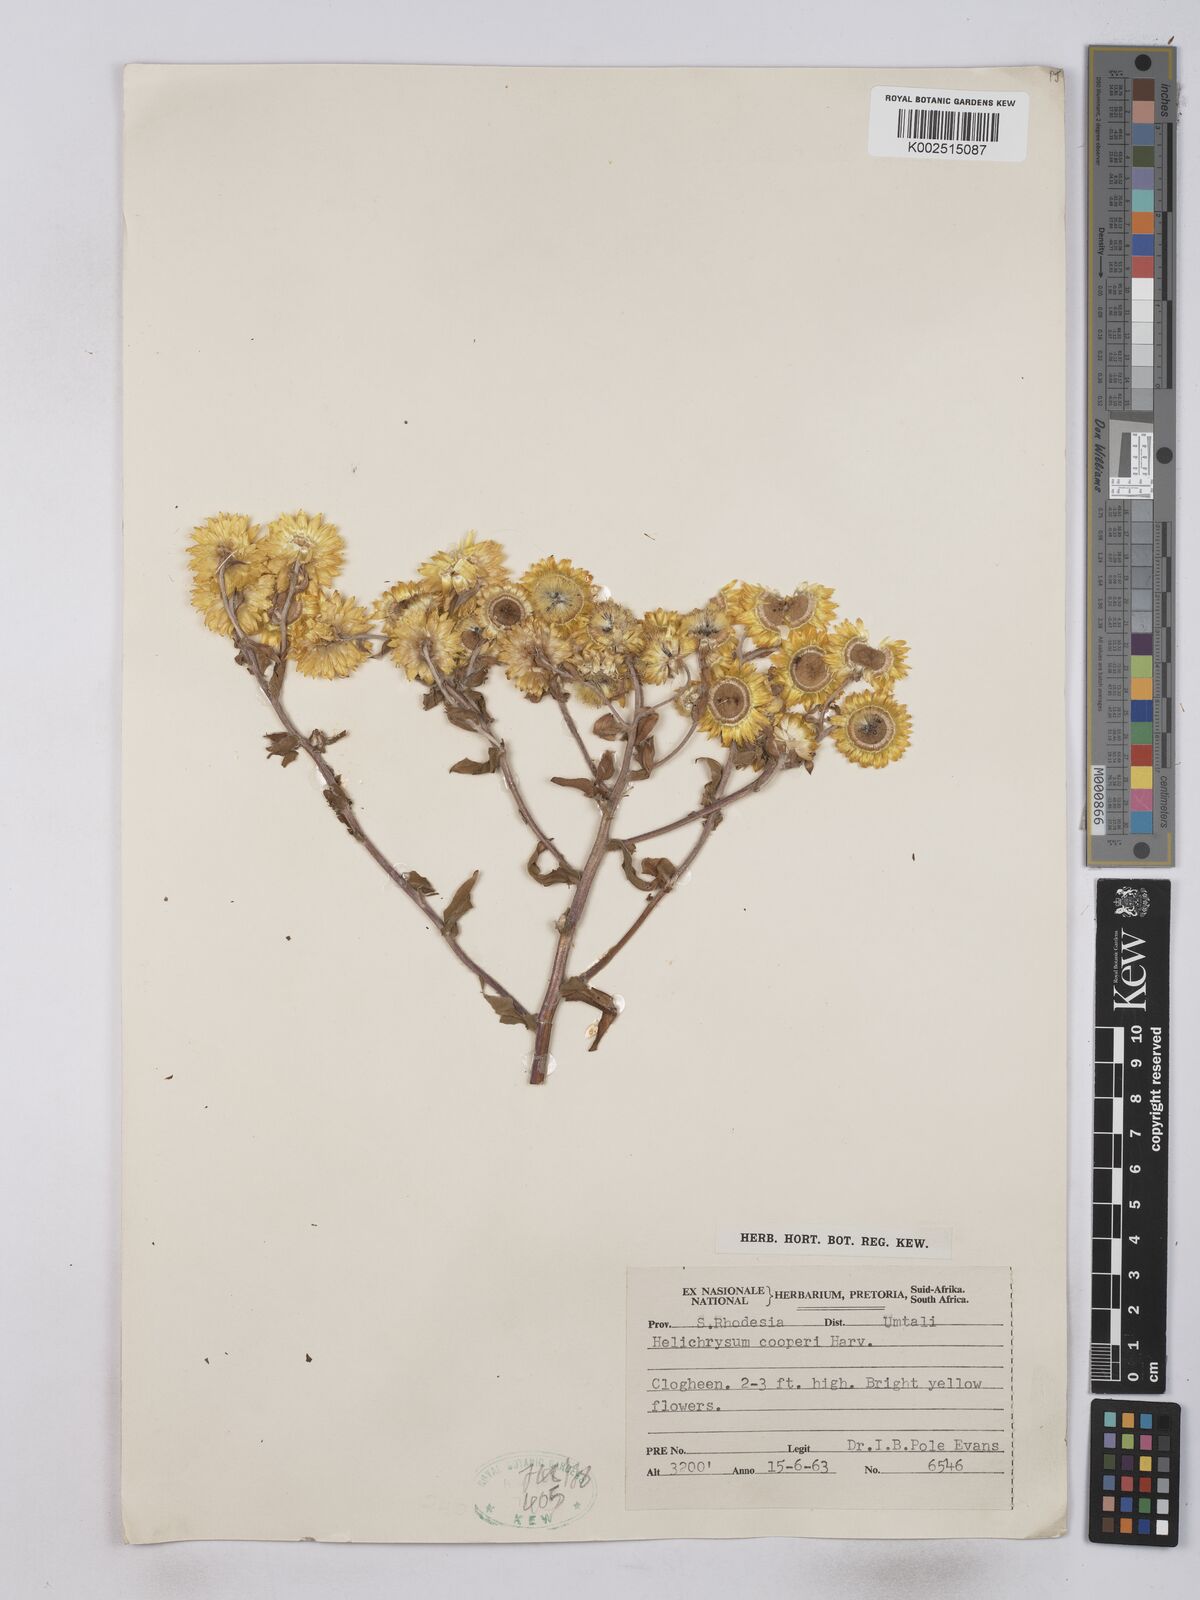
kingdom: Plantae
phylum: Tracheophyta
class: Magnoliopsida
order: Asterales
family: Asteraceae
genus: Helichrysum
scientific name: Helichrysum setosum
